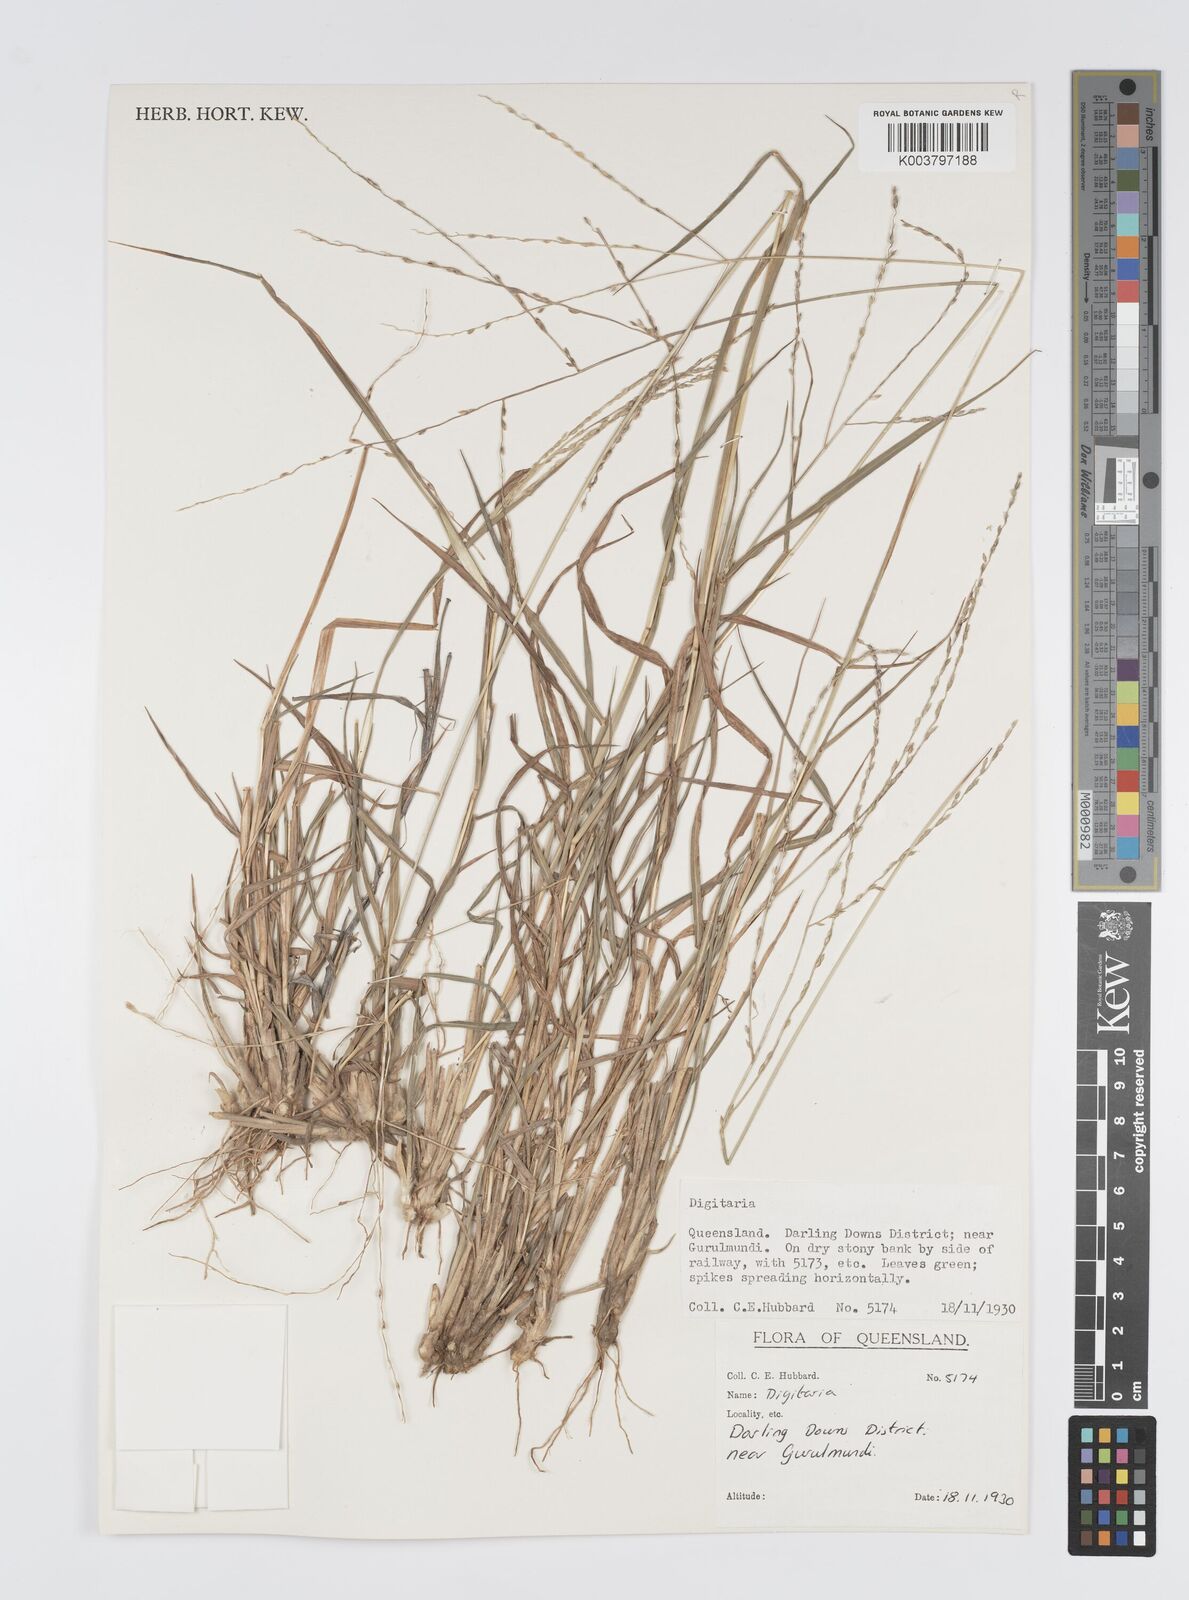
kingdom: Plantae
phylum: Tracheophyta
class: Liliopsida
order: Poales
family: Poaceae
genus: Digitaria
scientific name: Digitaria spec
